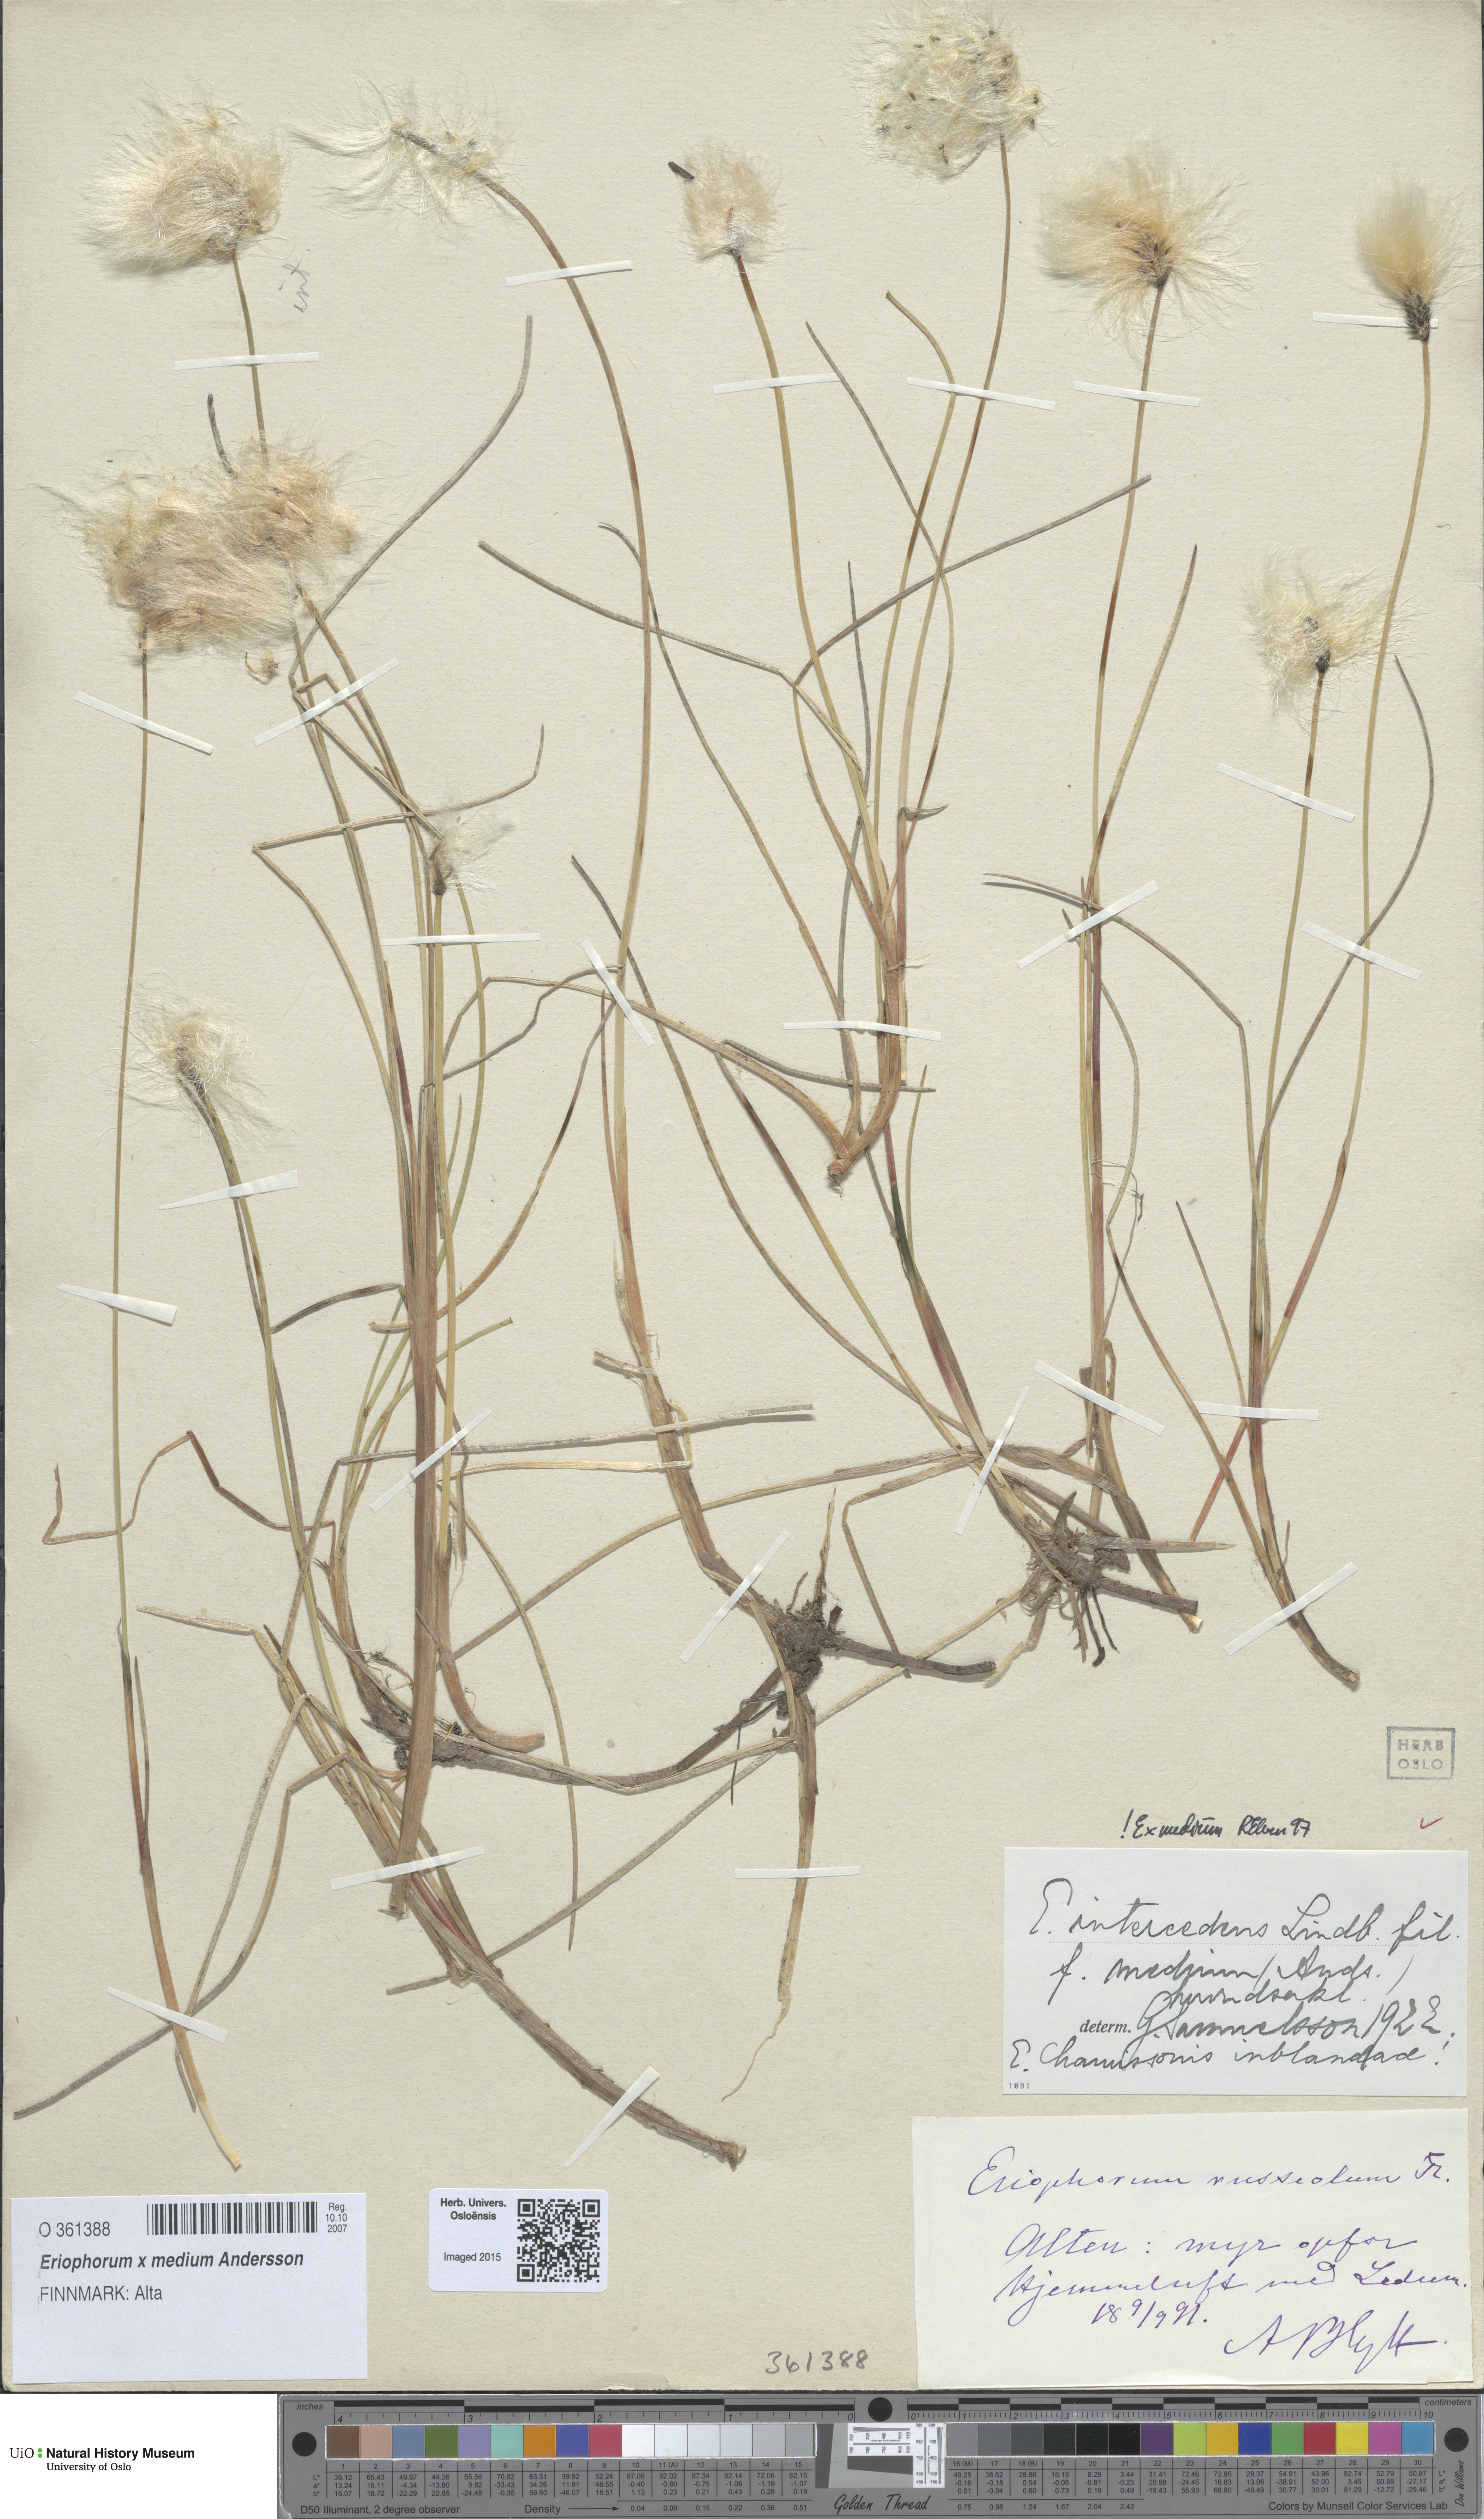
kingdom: Plantae
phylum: Tracheophyta
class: Liliopsida
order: Poales
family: Cyperaceae
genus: Eriophorum
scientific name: Eriophorum medium
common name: Intermediate cottongrass
